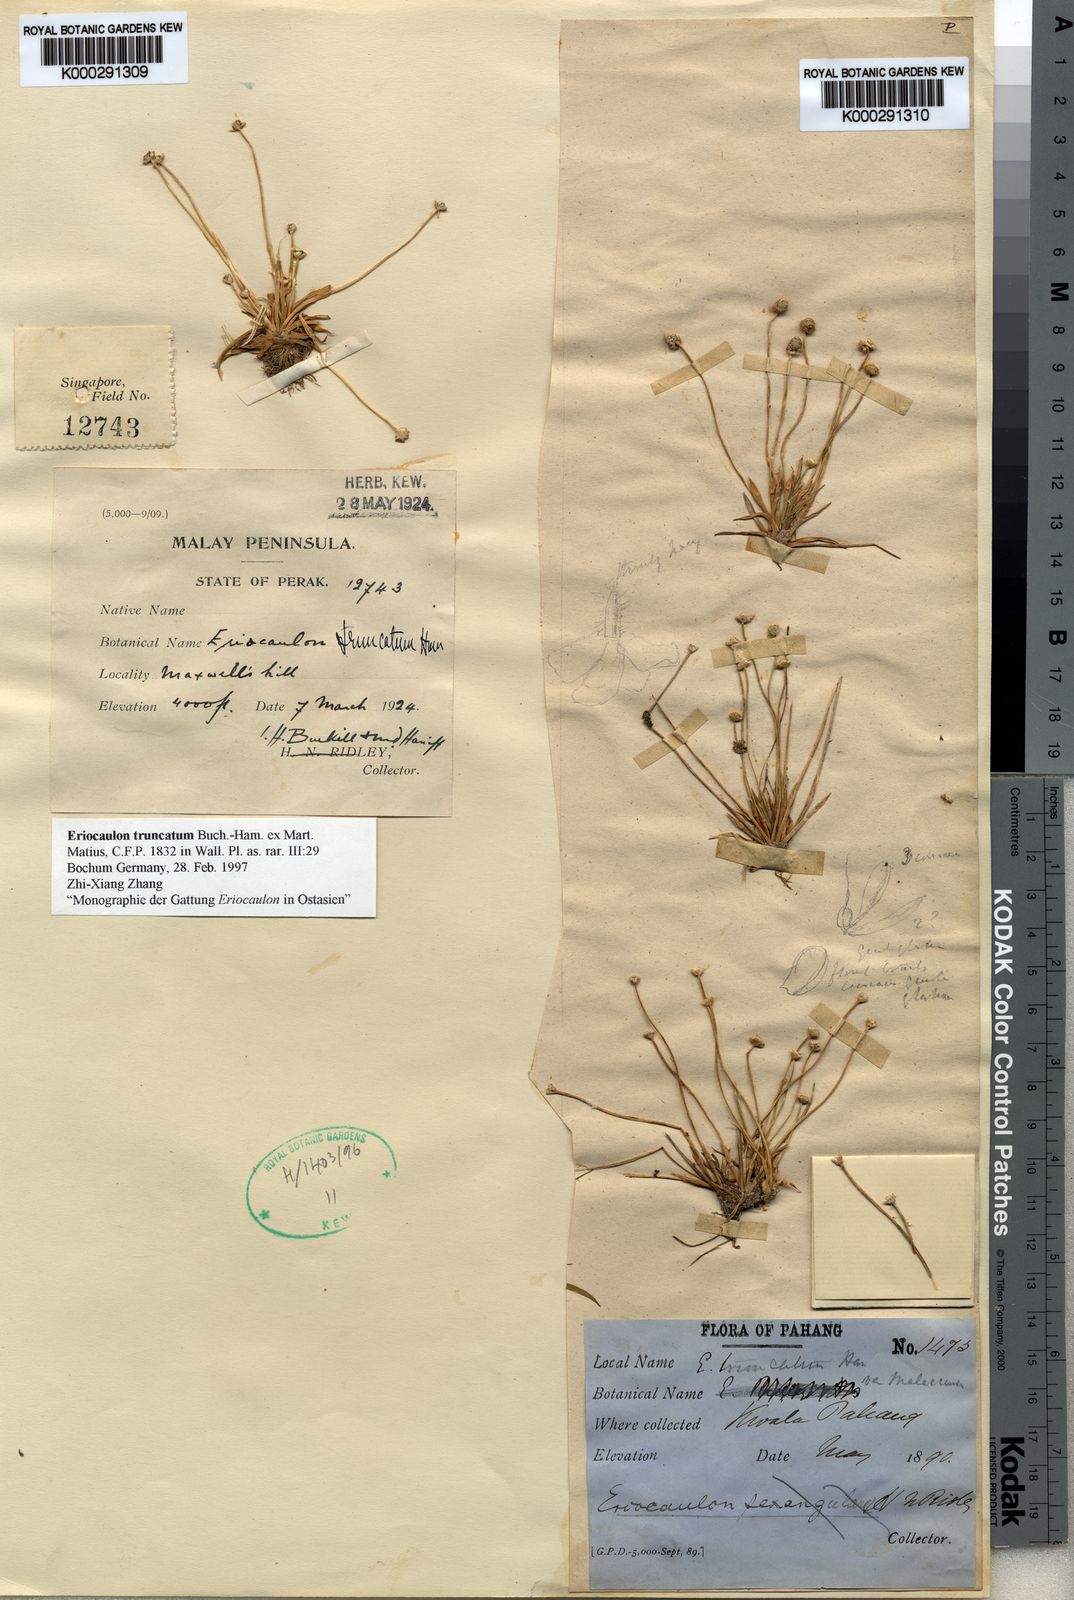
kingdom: Plantae
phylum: Tracheophyta
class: Liliopsida
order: Poales
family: Eriocaulaceae
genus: Eriocaulon
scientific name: Eriocaulon truncatum
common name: Short pipe-wort
